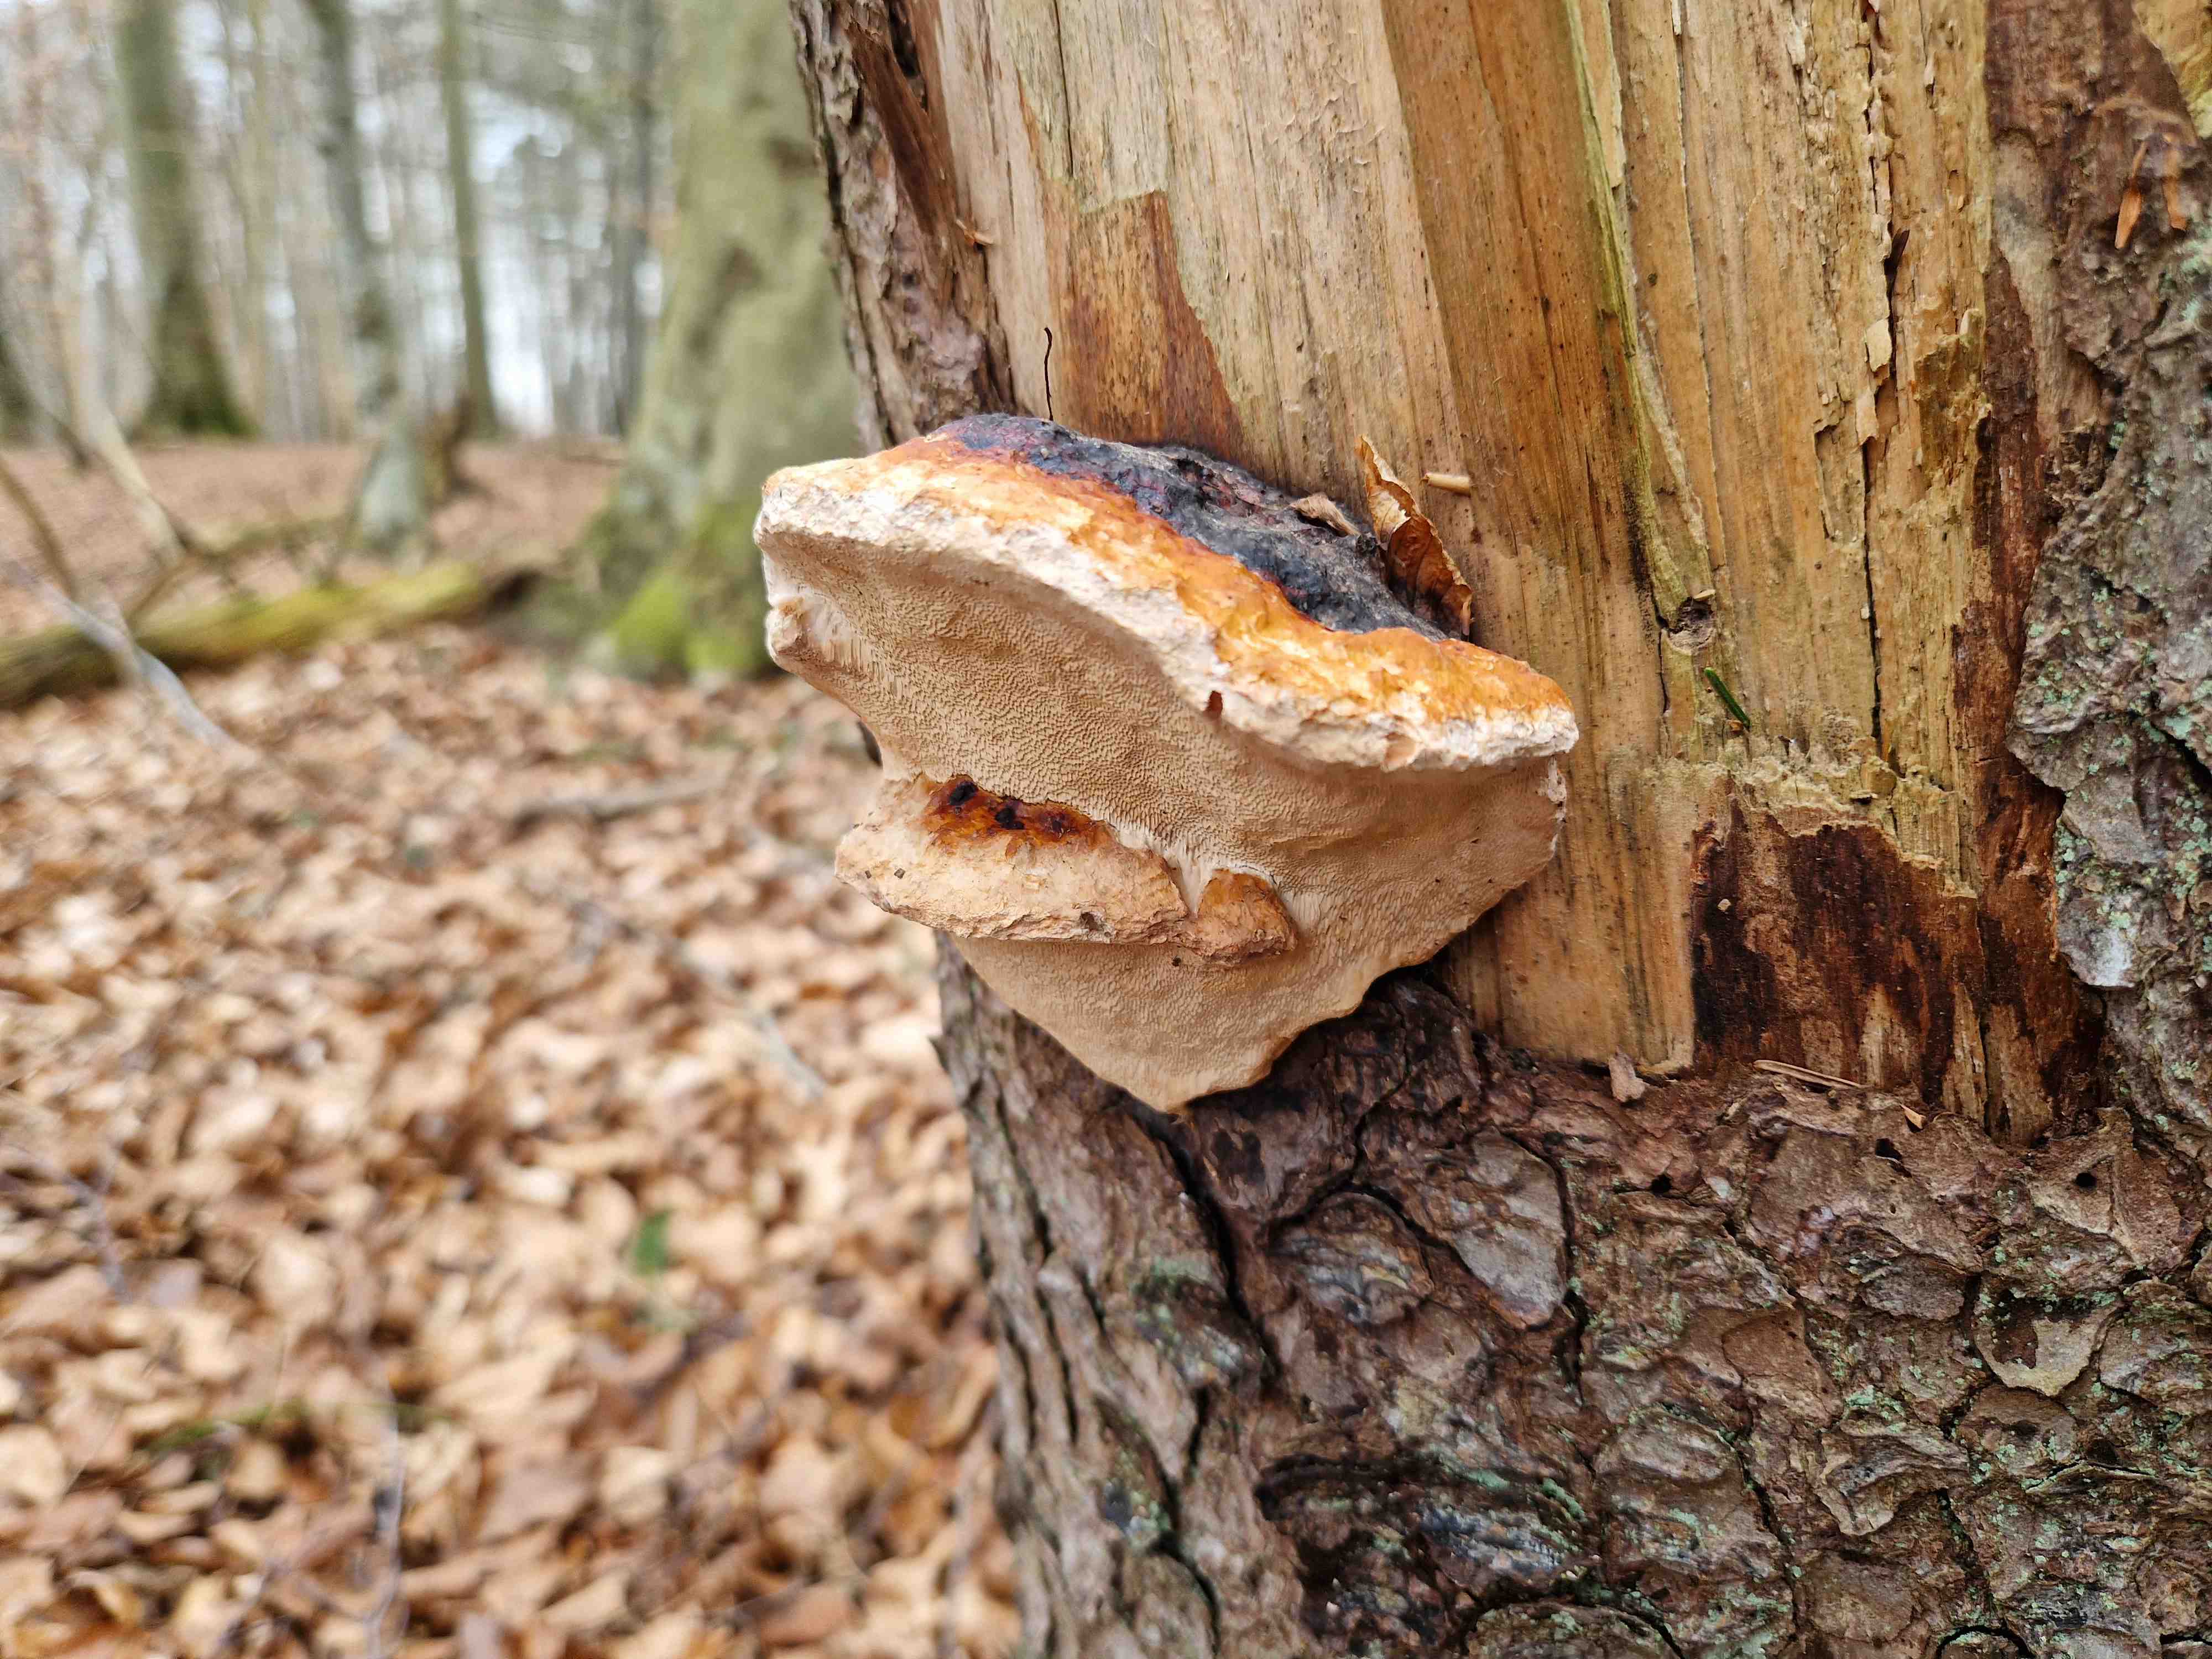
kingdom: Fungi
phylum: Basidiomycota
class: Agaricomycetes
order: Polyporales
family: Fomitopsidaceae
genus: Fomitopsis
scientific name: Fomitopsis pinicola
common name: randbæltet hovporesvamp
